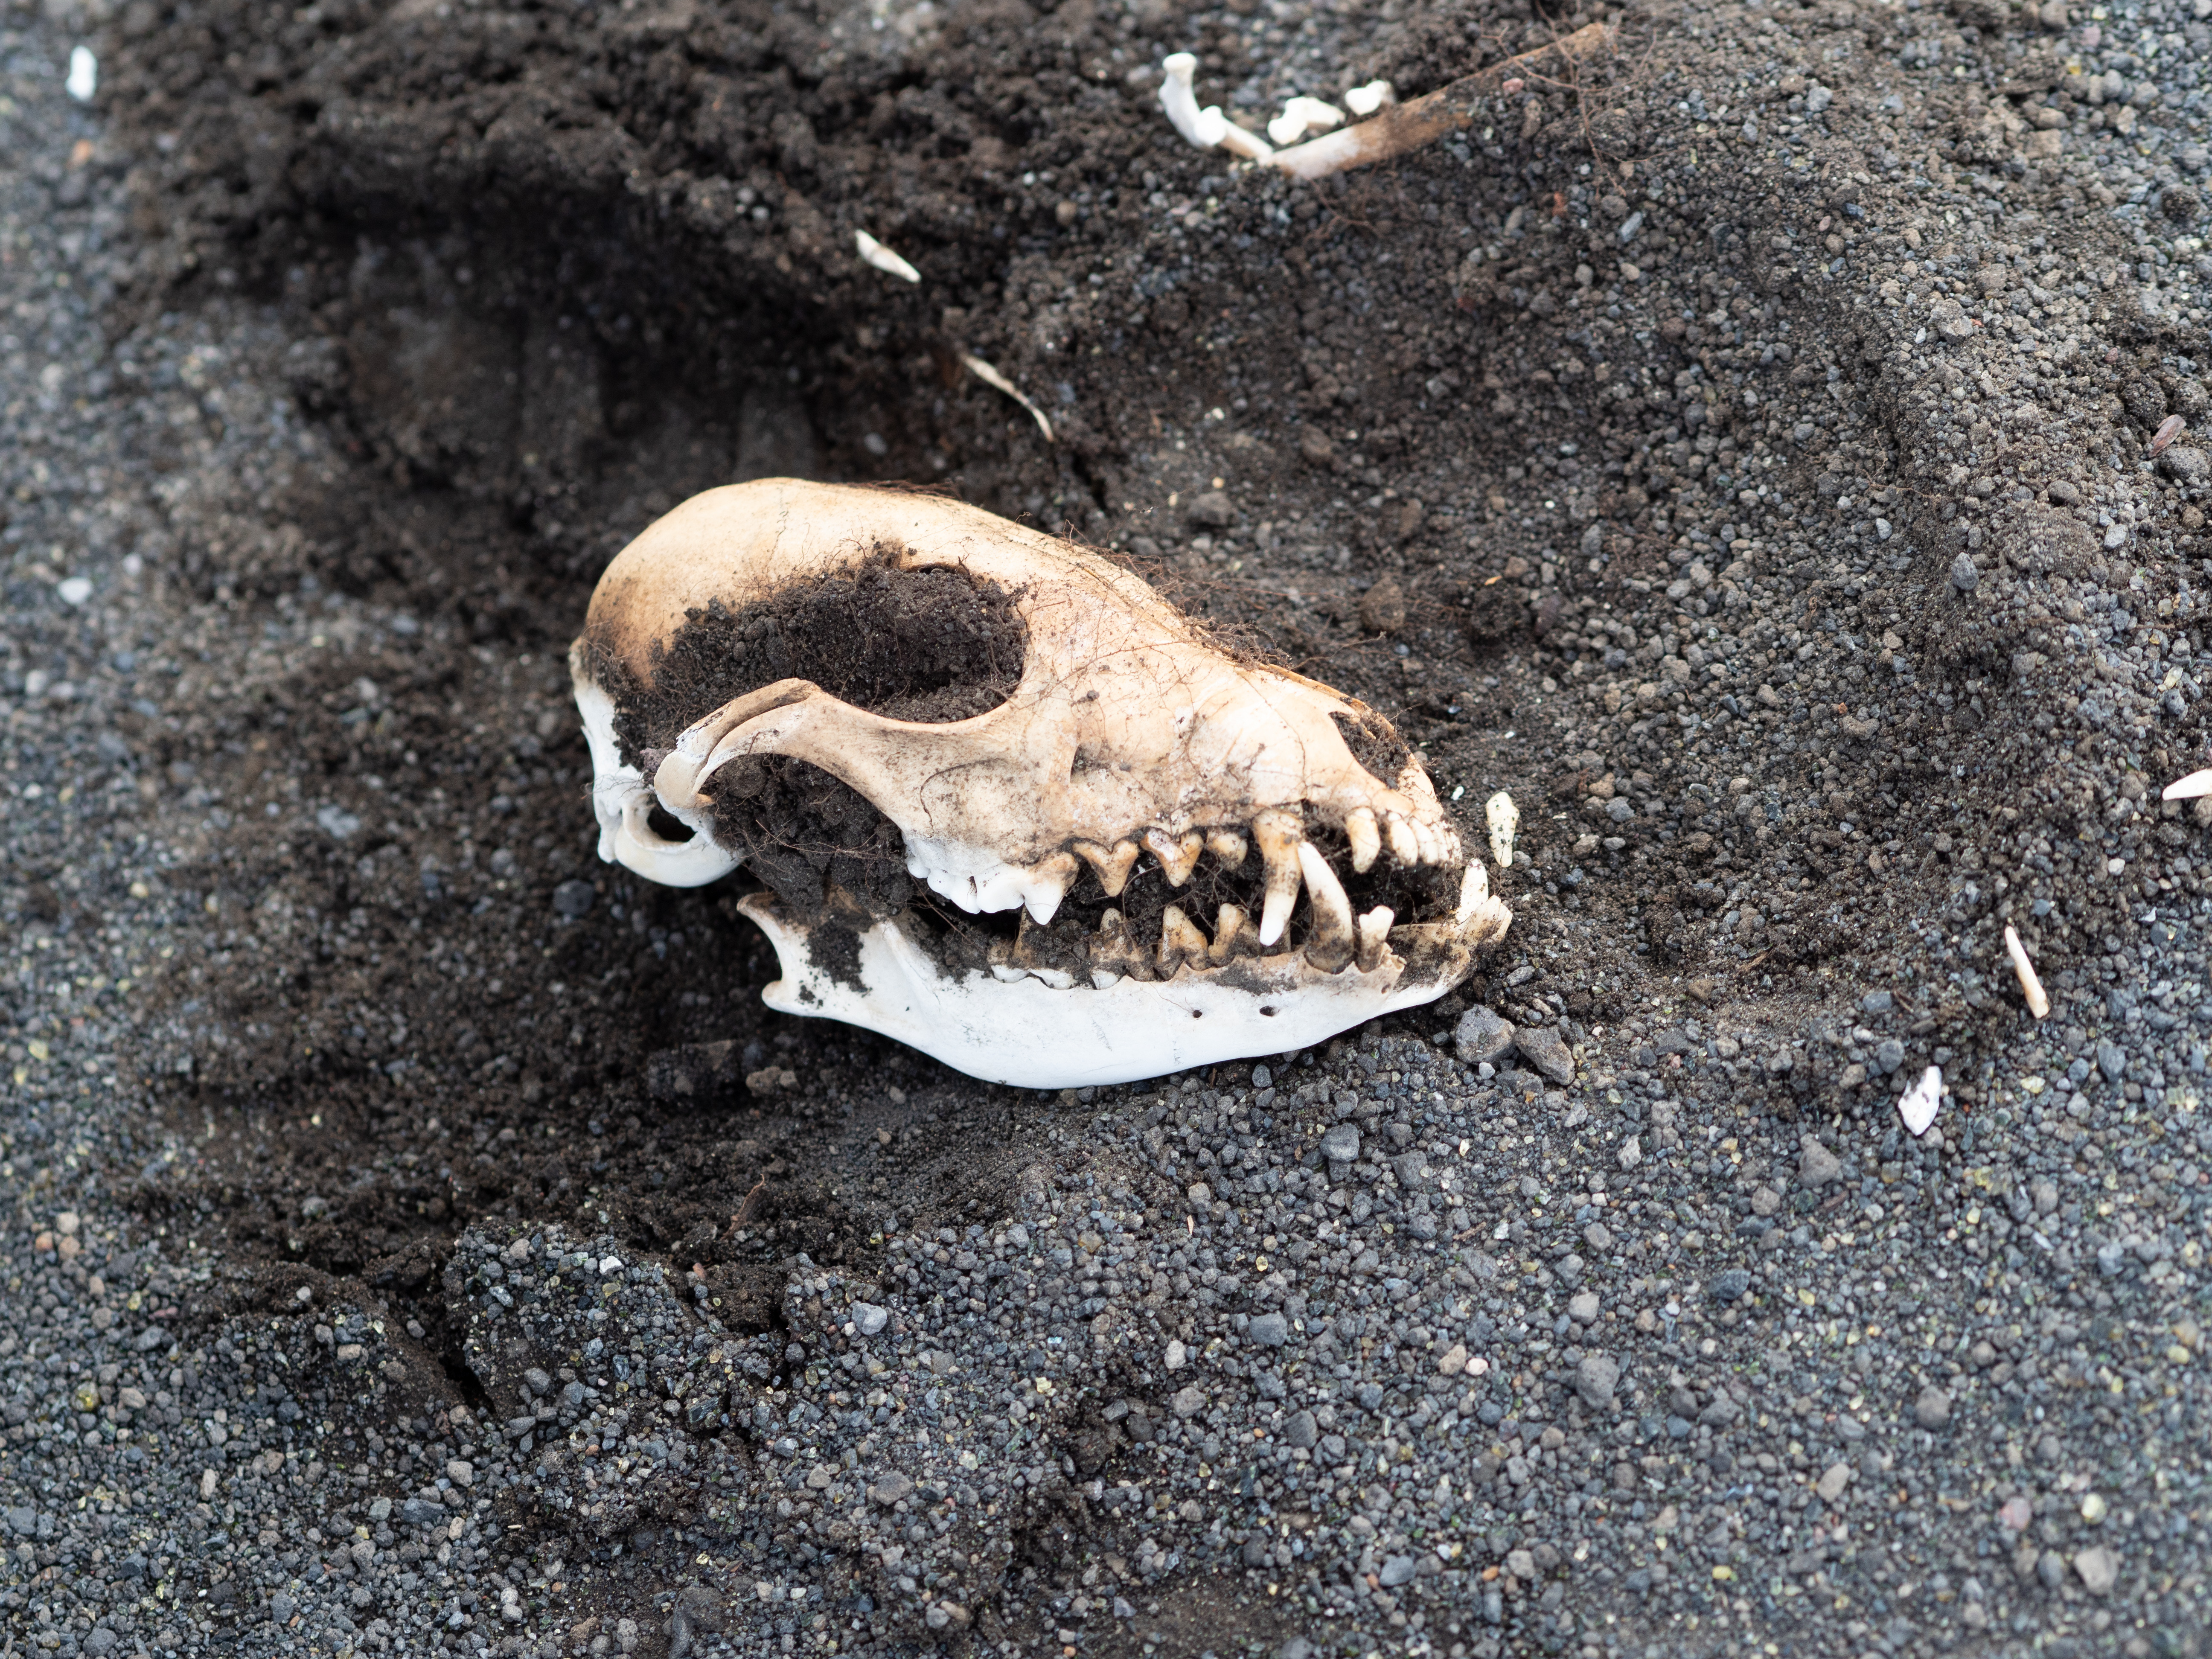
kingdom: Animalia
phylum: Chordata
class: Mammalia
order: Carnivora
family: Canidae
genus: Vulpes
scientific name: Vulpes lagopus
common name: Arctic fox
